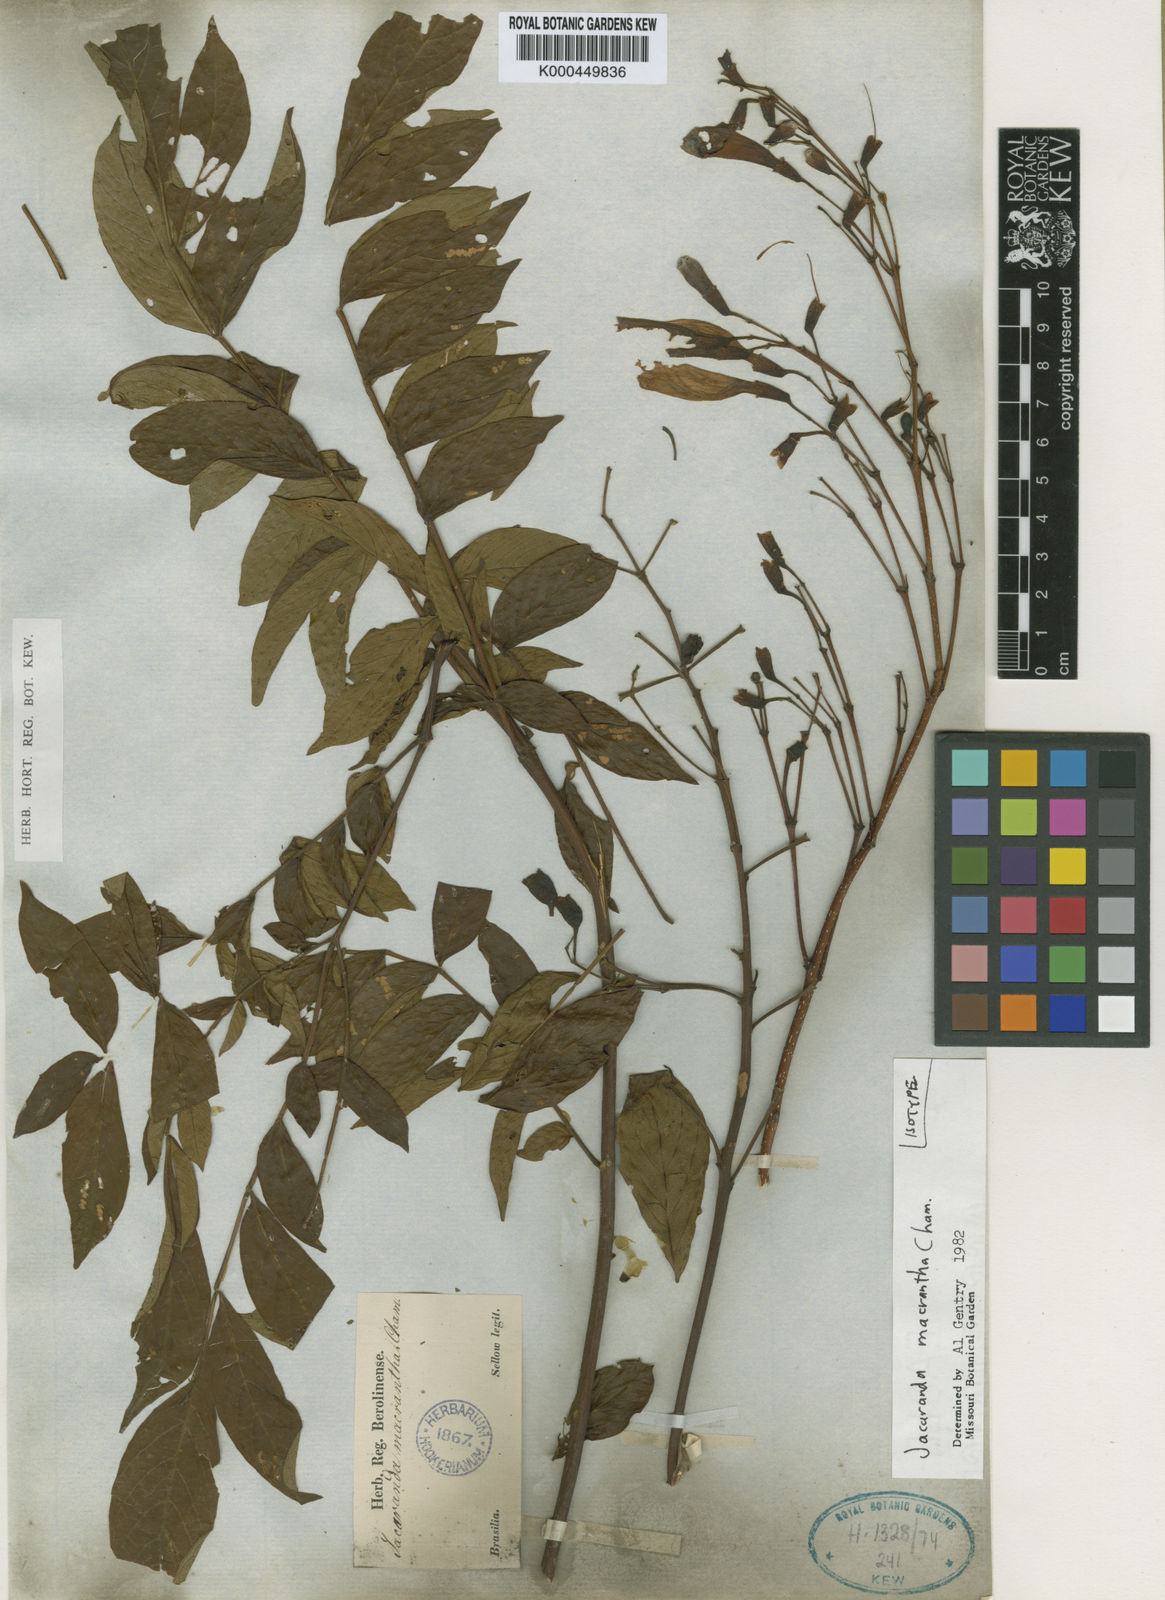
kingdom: Plantae
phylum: Tracheophyta
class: Magnoliopsida
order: Lamiales
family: Bignoniaceae
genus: Jacaranda
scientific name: Jacaranda macrantha
